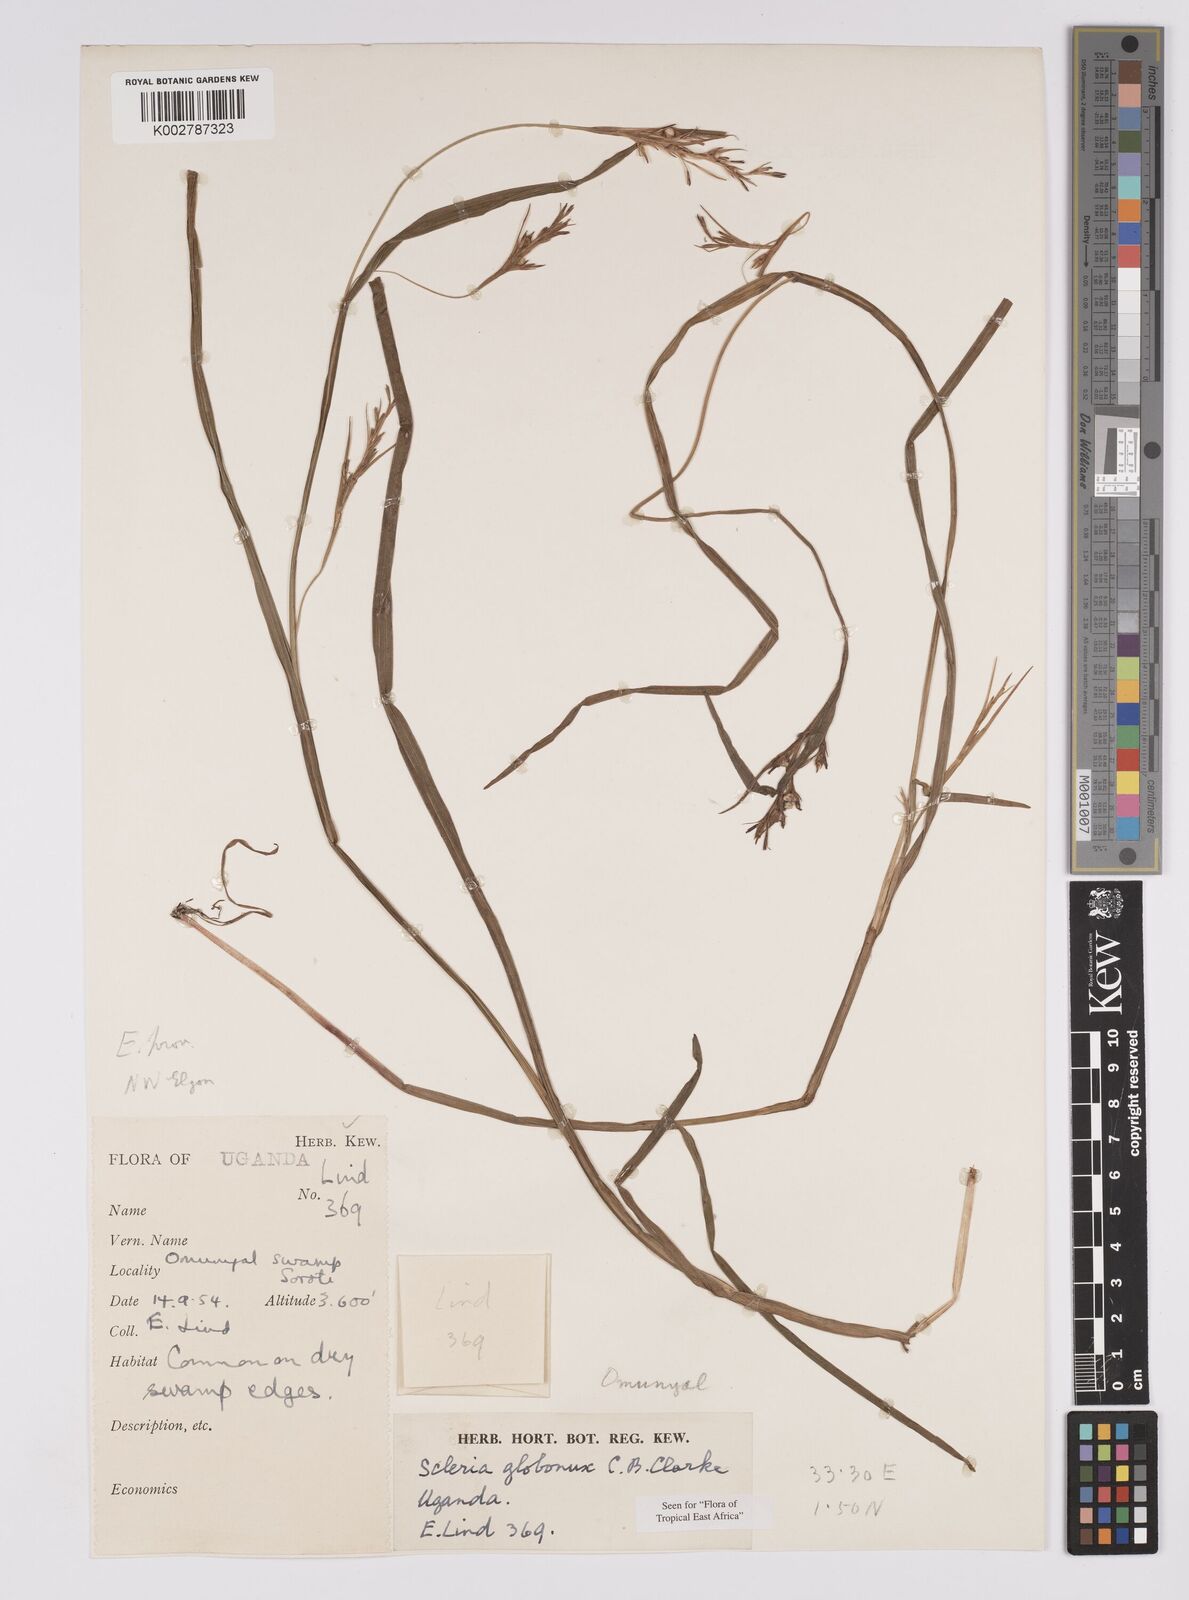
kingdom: Plantae
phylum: Tracheophyta
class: Liliopsida
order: Poales
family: Cyperaceae
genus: Scleria
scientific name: Scleria globonux
